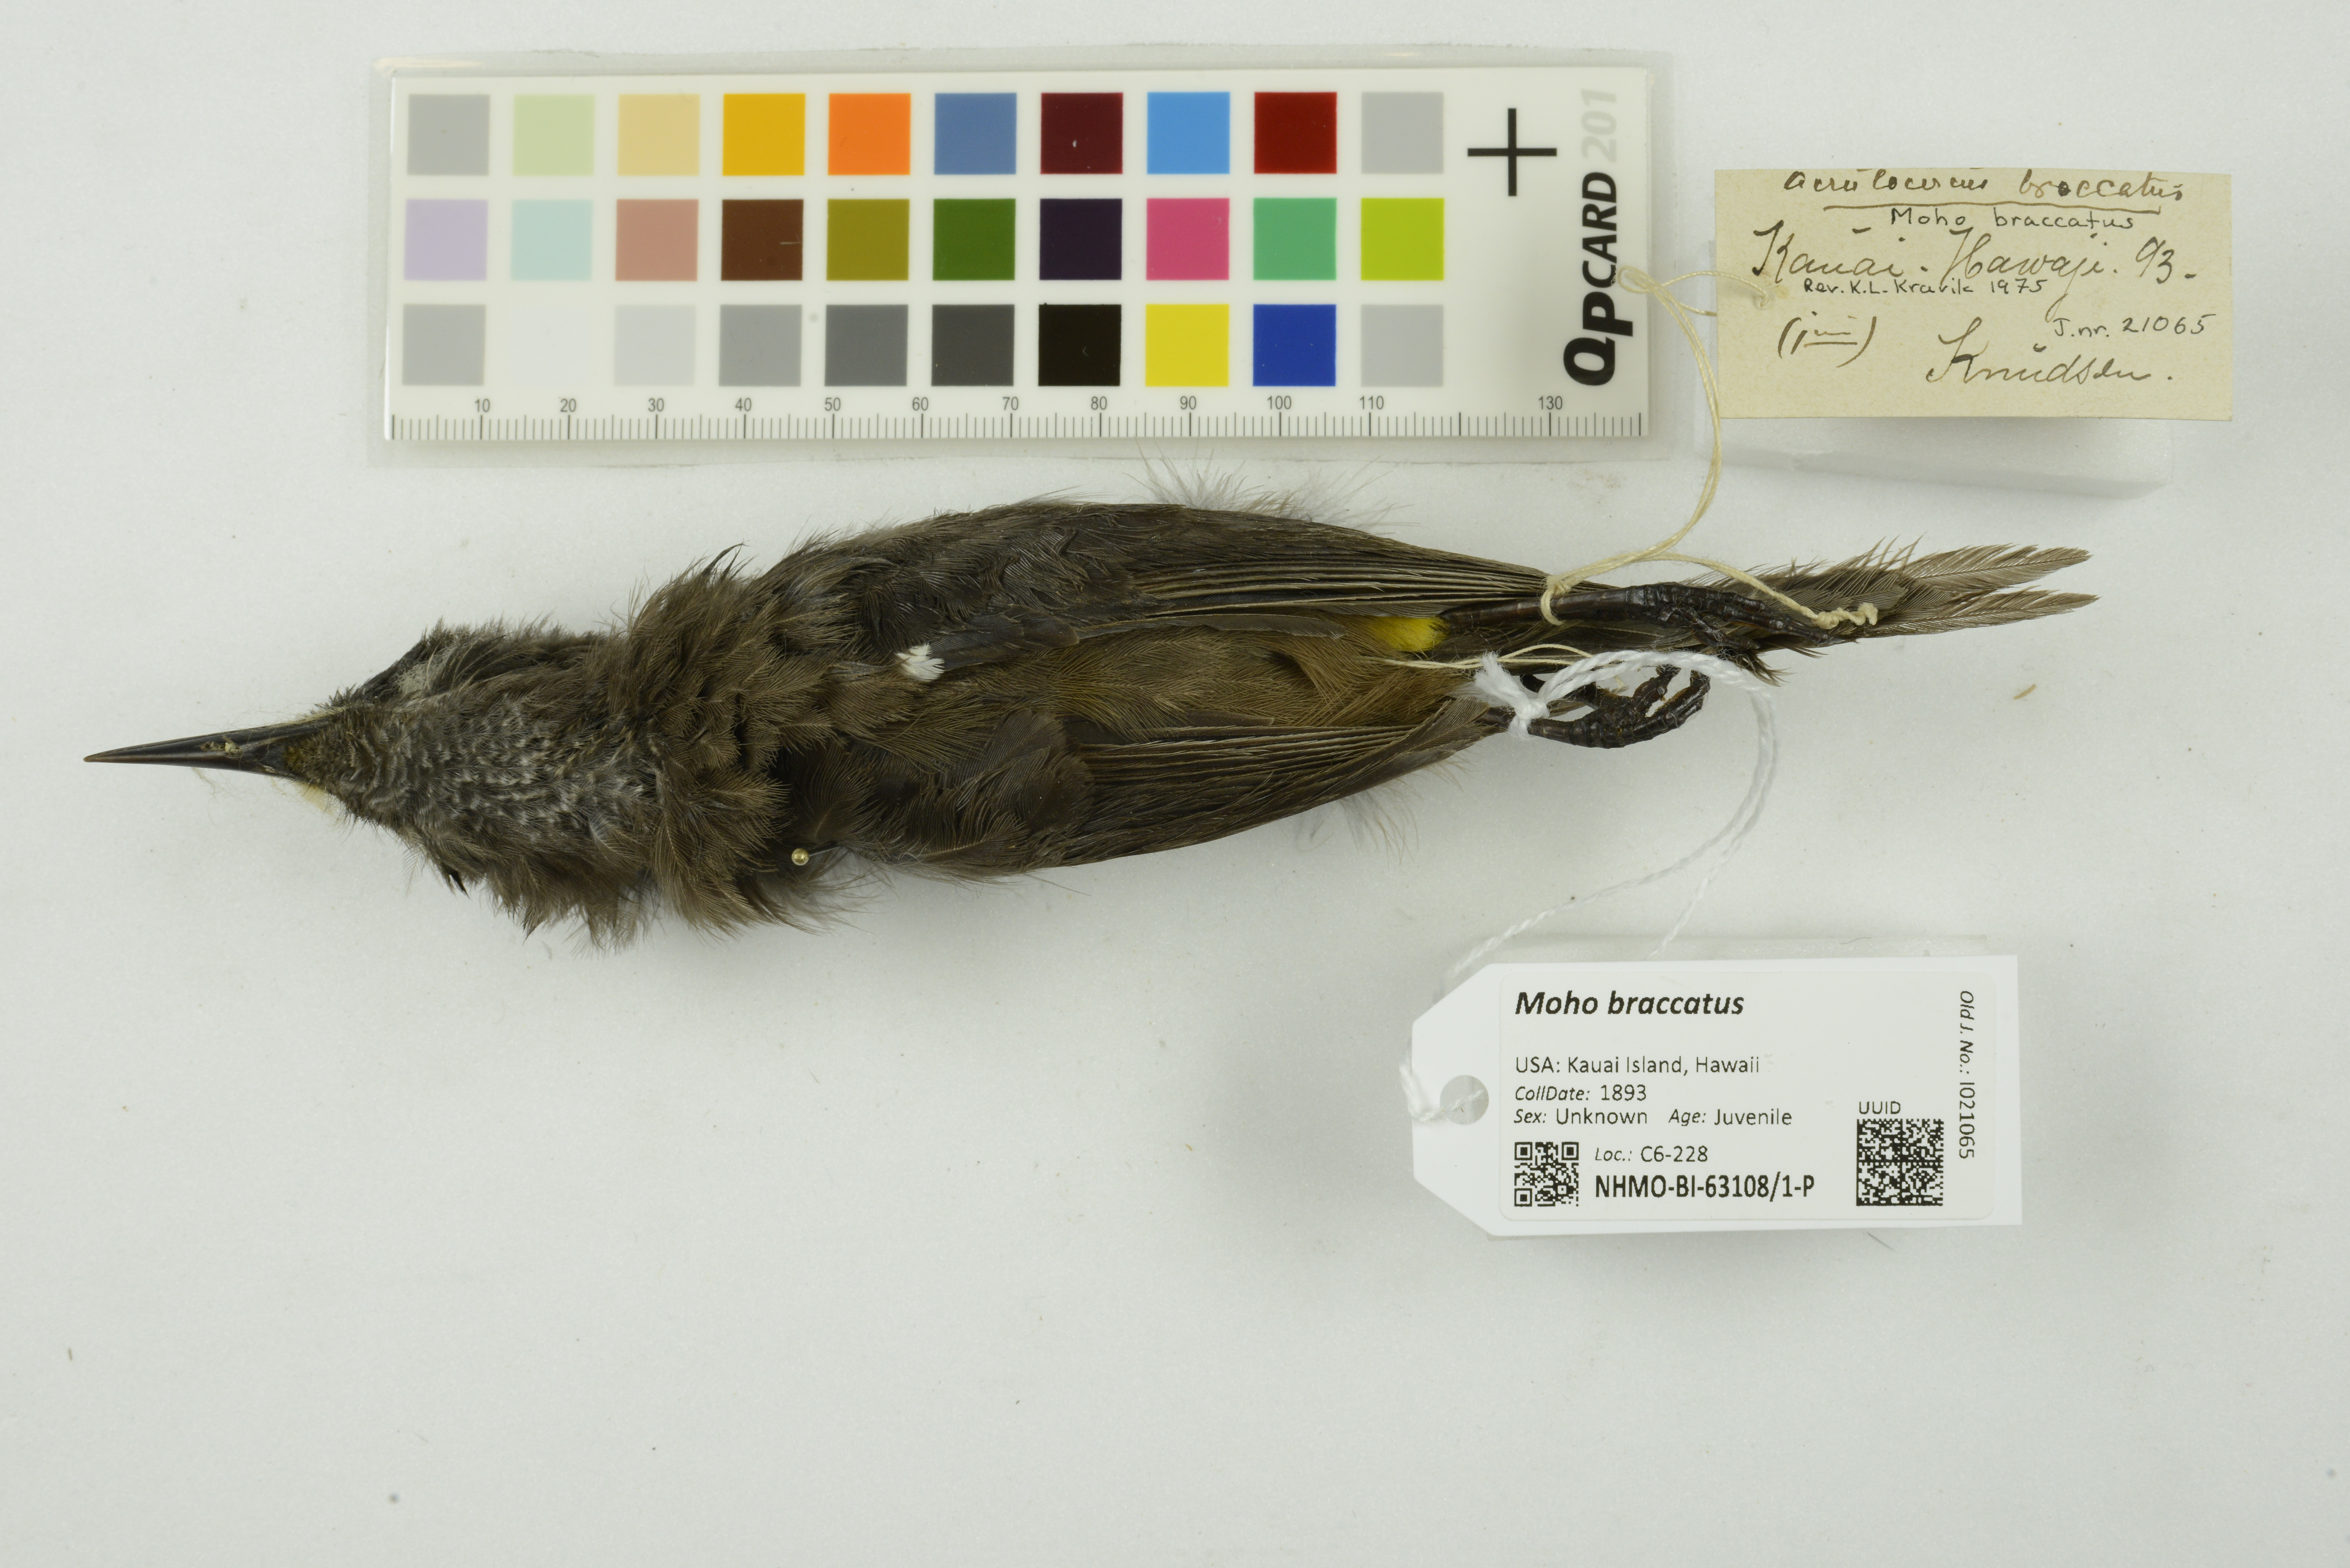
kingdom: Animalia
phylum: Chordata
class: Aves
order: Passeriformes
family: Mohoidae
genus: Moho
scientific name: Moho braccatus
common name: Kauai oo
